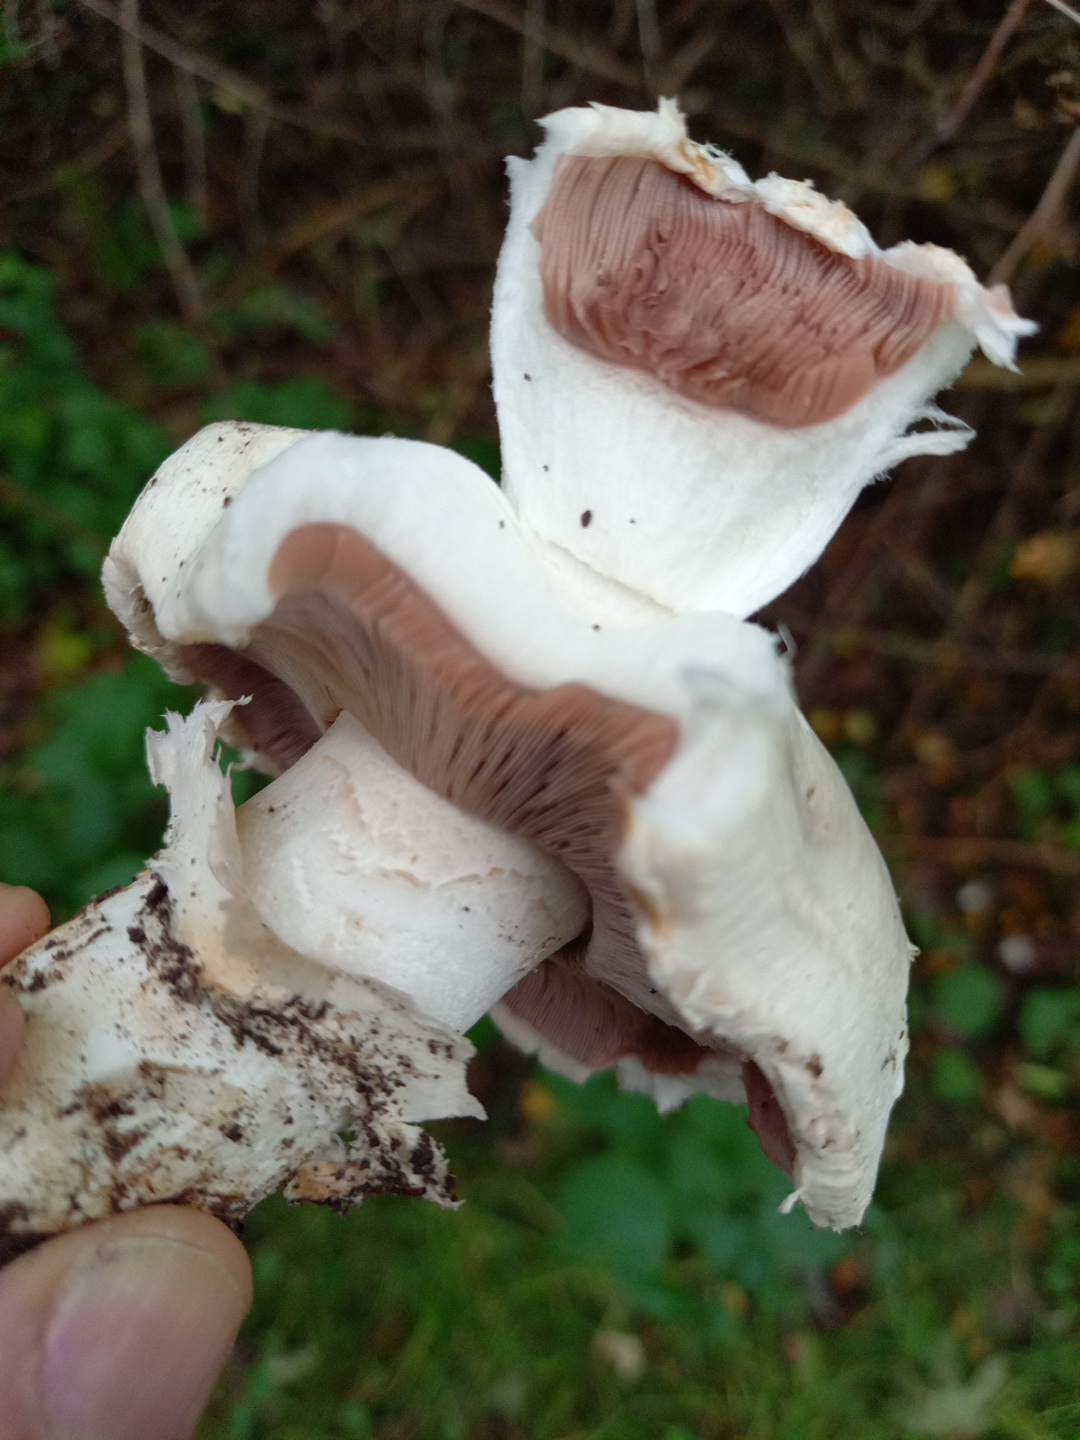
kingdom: Fungi
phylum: Basidiomycota
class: Agaricomycetes
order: Agaricales
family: Agaricaceae
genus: Agaricus
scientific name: Agaricus
